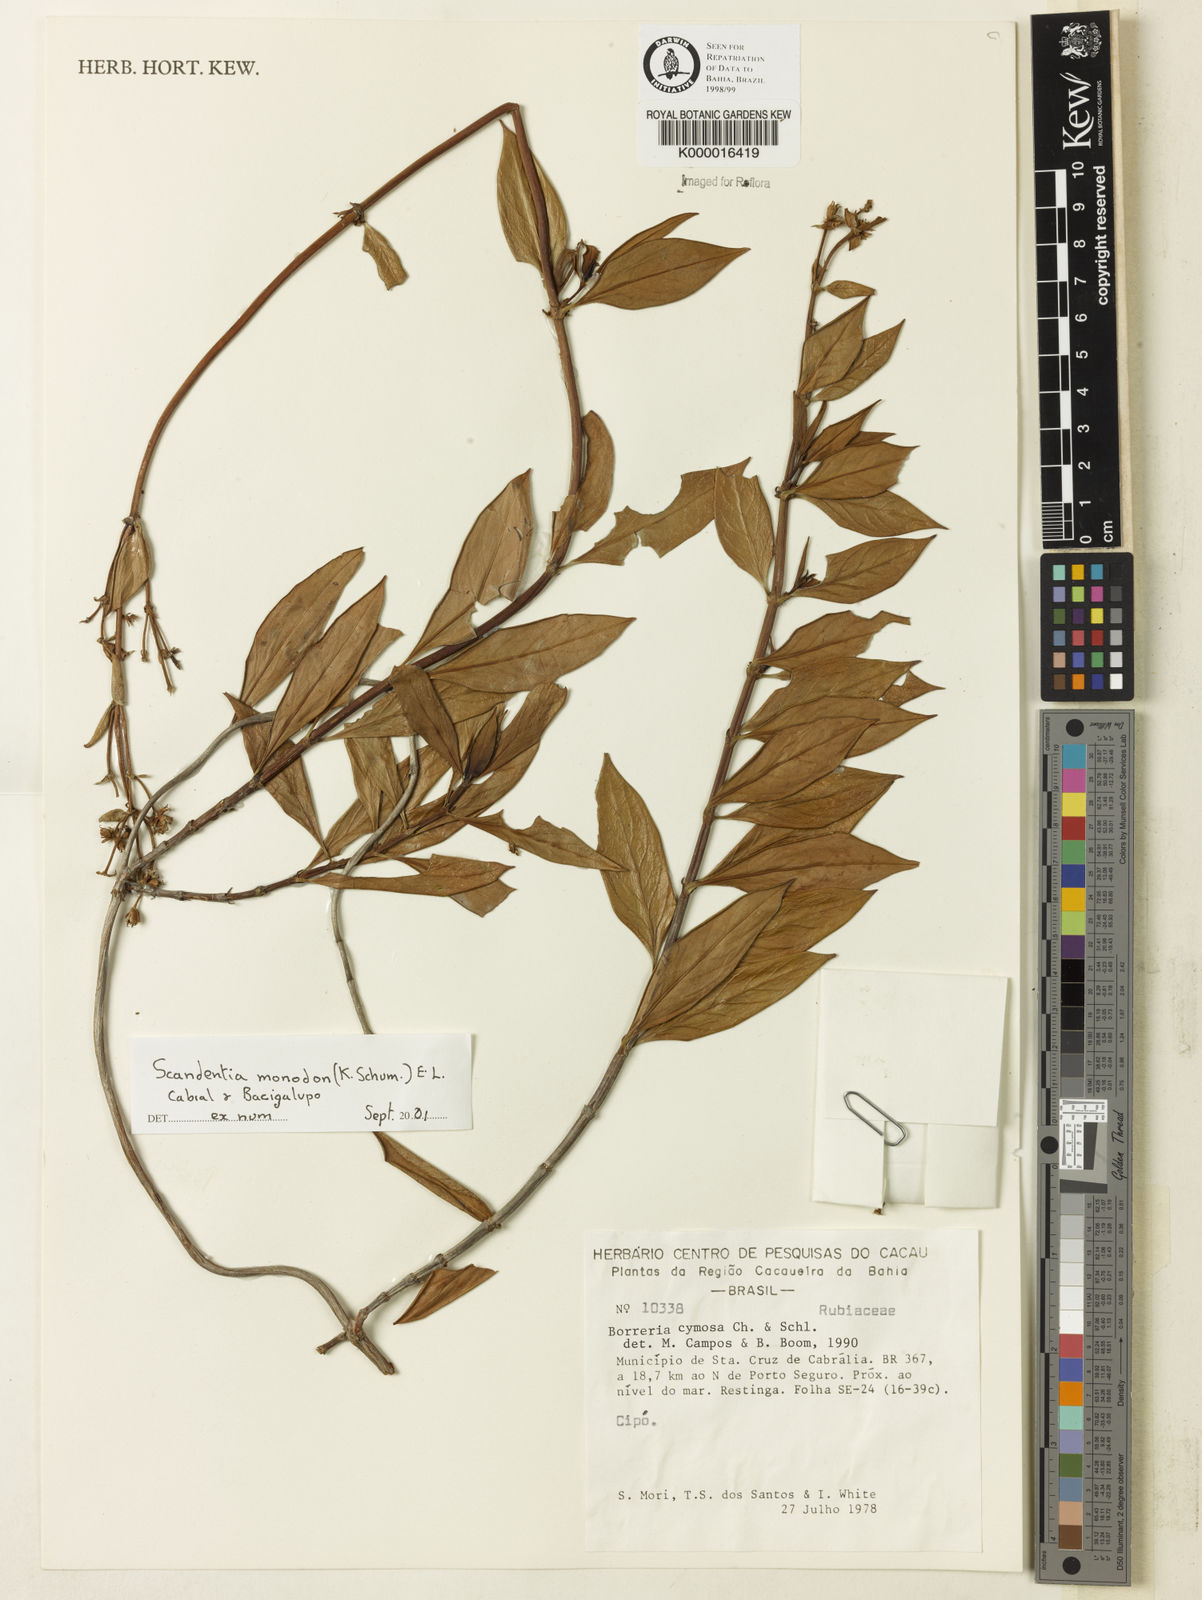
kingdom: Plantae
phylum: Tracheophyta
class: Magnoliopsida
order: Gentianales
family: Rubiaceae
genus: Denscantia
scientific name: Denscantia monodon
